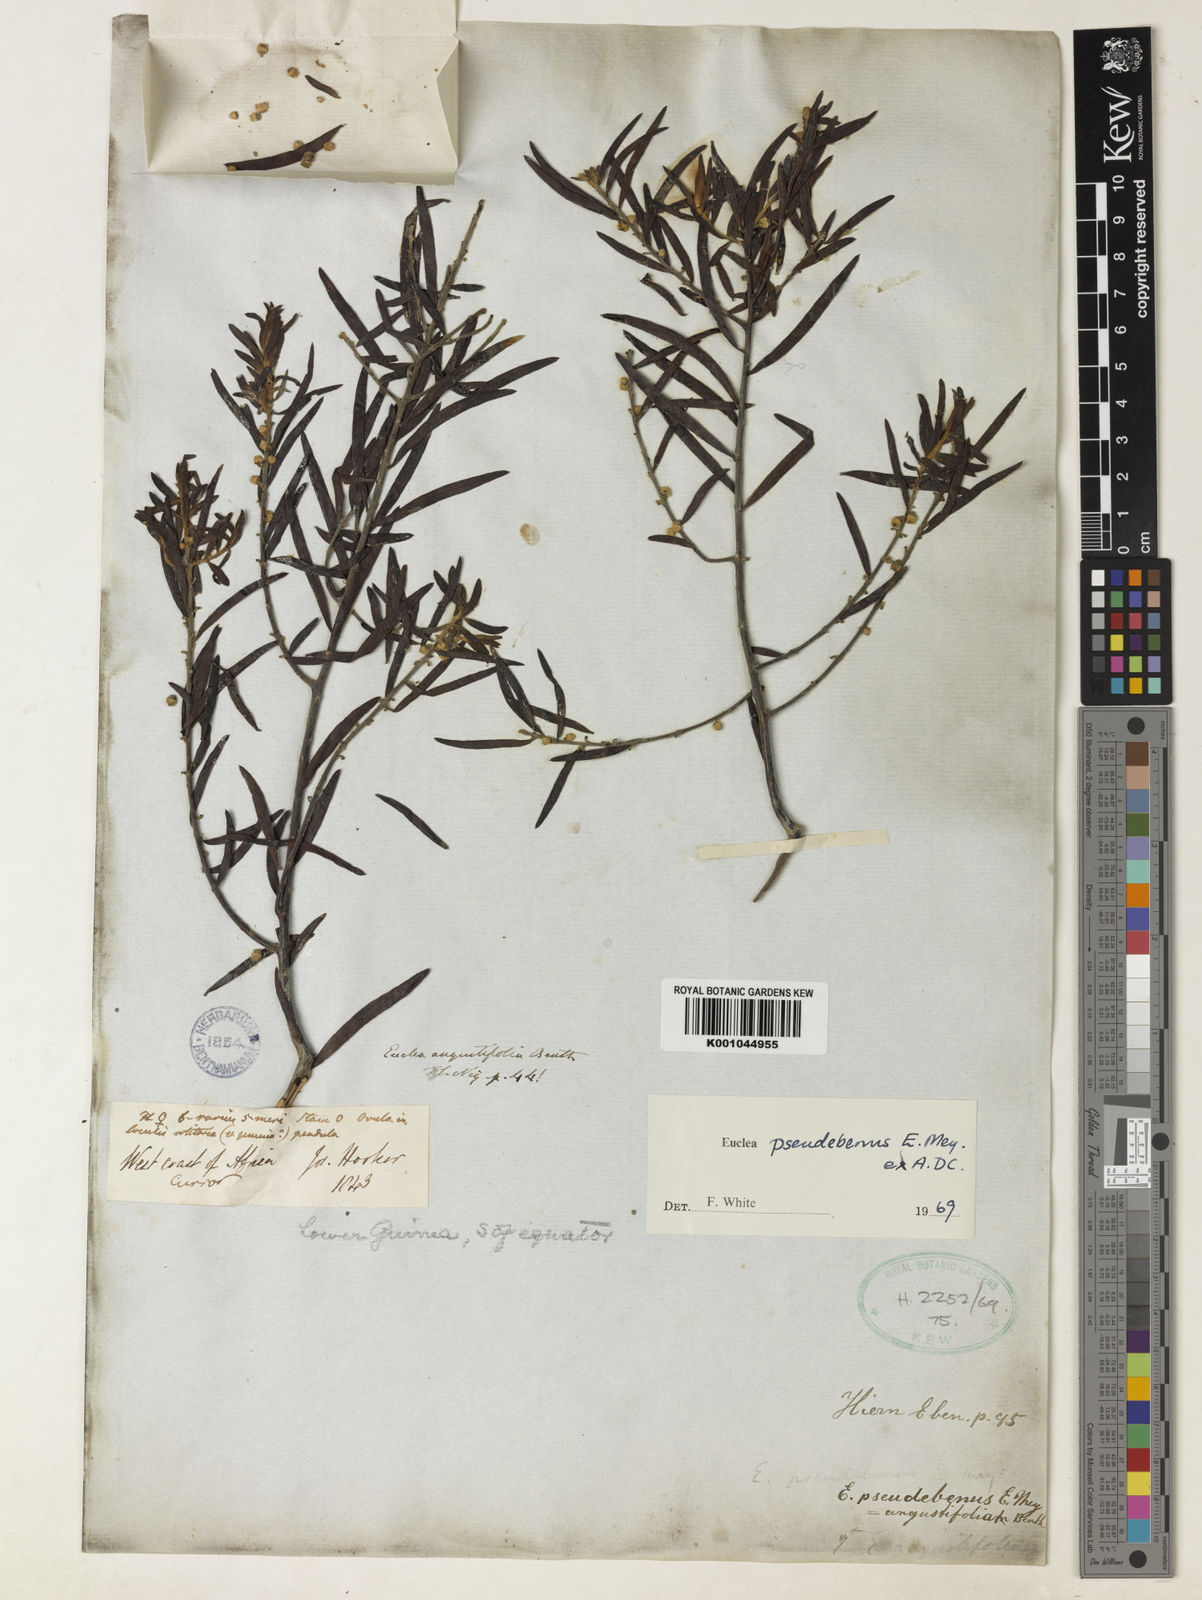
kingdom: Plantae
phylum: Tracheophyta
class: Magnoliopsida
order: Ericales
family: Ebenaceae
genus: Euclea
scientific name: Euclea pseudebenus
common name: Black ebony
